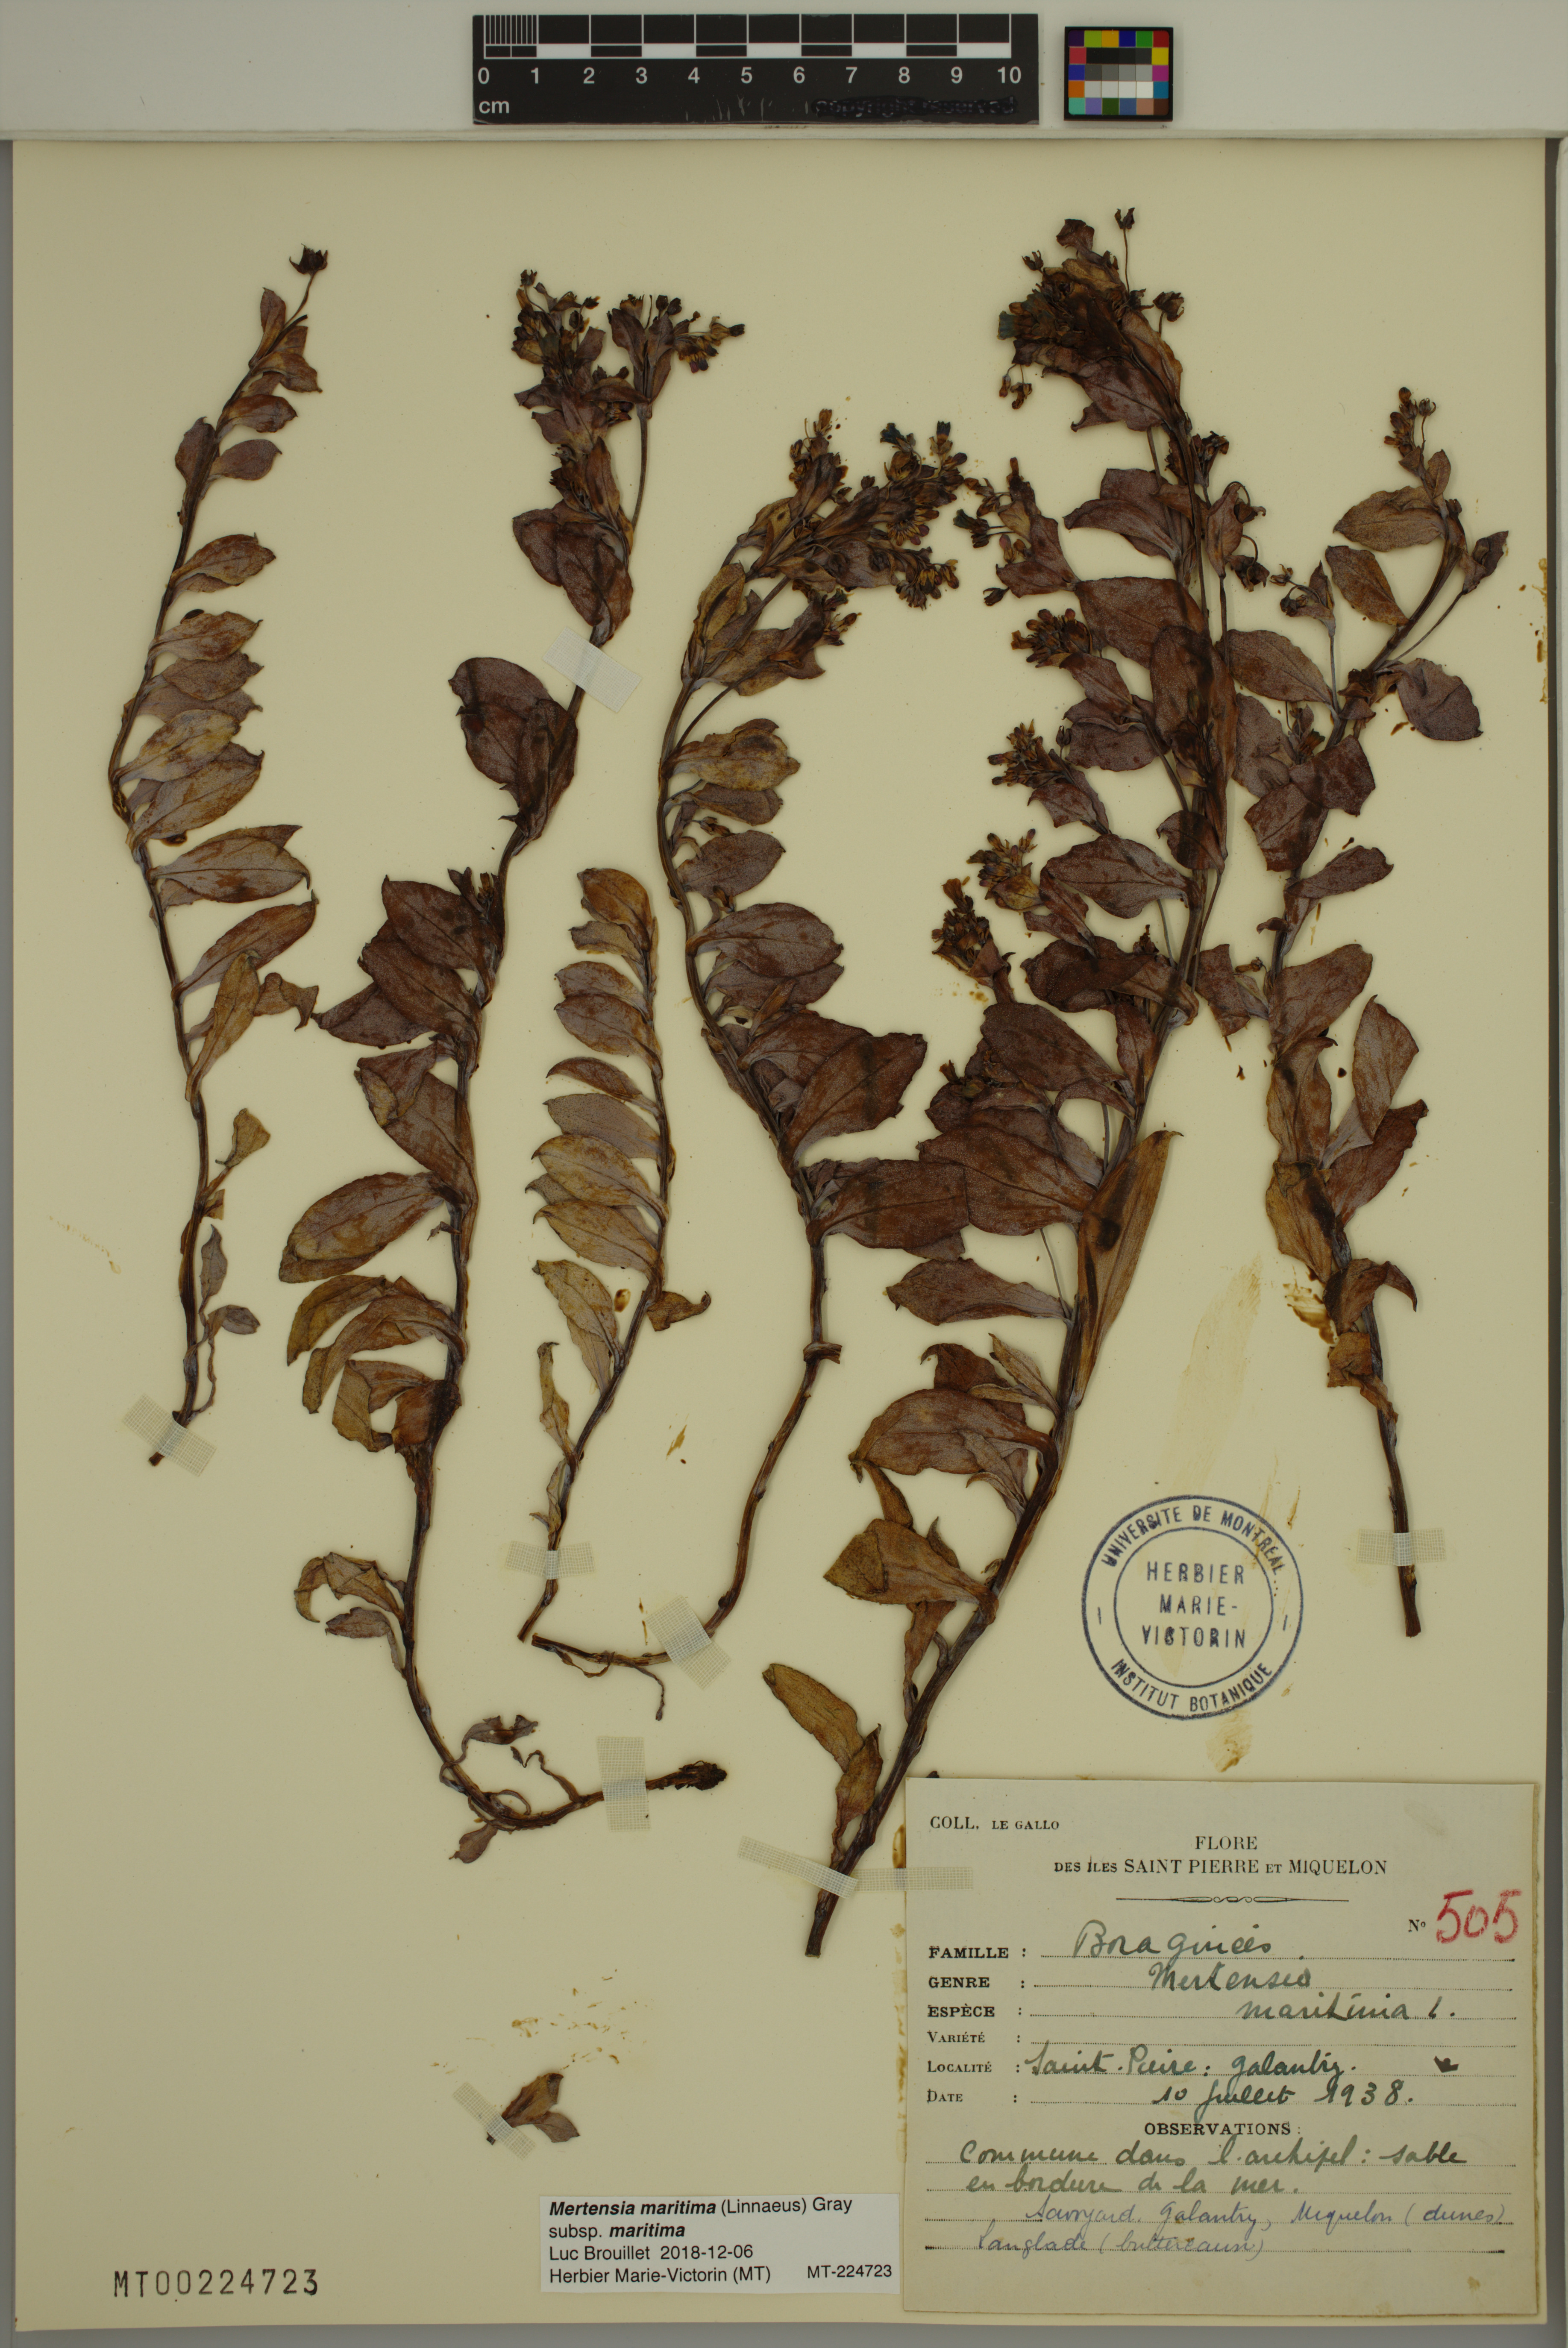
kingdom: Plantae
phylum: Tracheophyta
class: Magnoliopsida
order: Boraginales
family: Boraginaceae
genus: Mertensia
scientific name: Mertensia maritima
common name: Oysterplant
